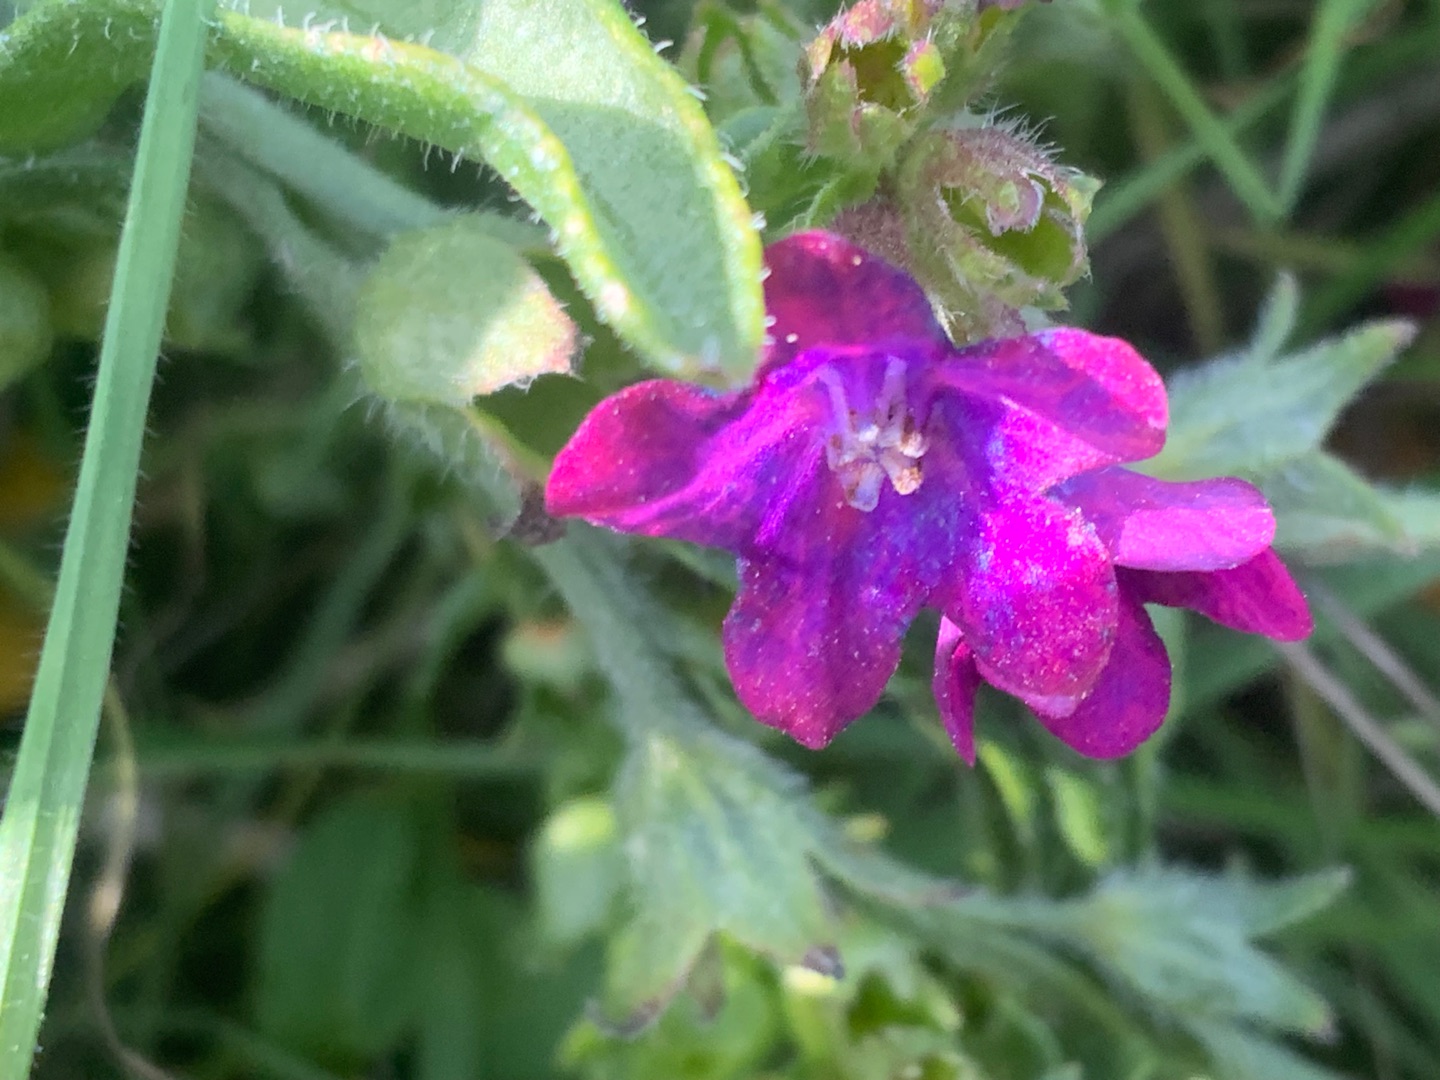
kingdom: Plantae
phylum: Tracheophyta
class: Magnoliopsida
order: Boraginales
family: Boraginaceae
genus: Anchusa
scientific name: Anchusa officinalis
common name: Læge-oksetunge
